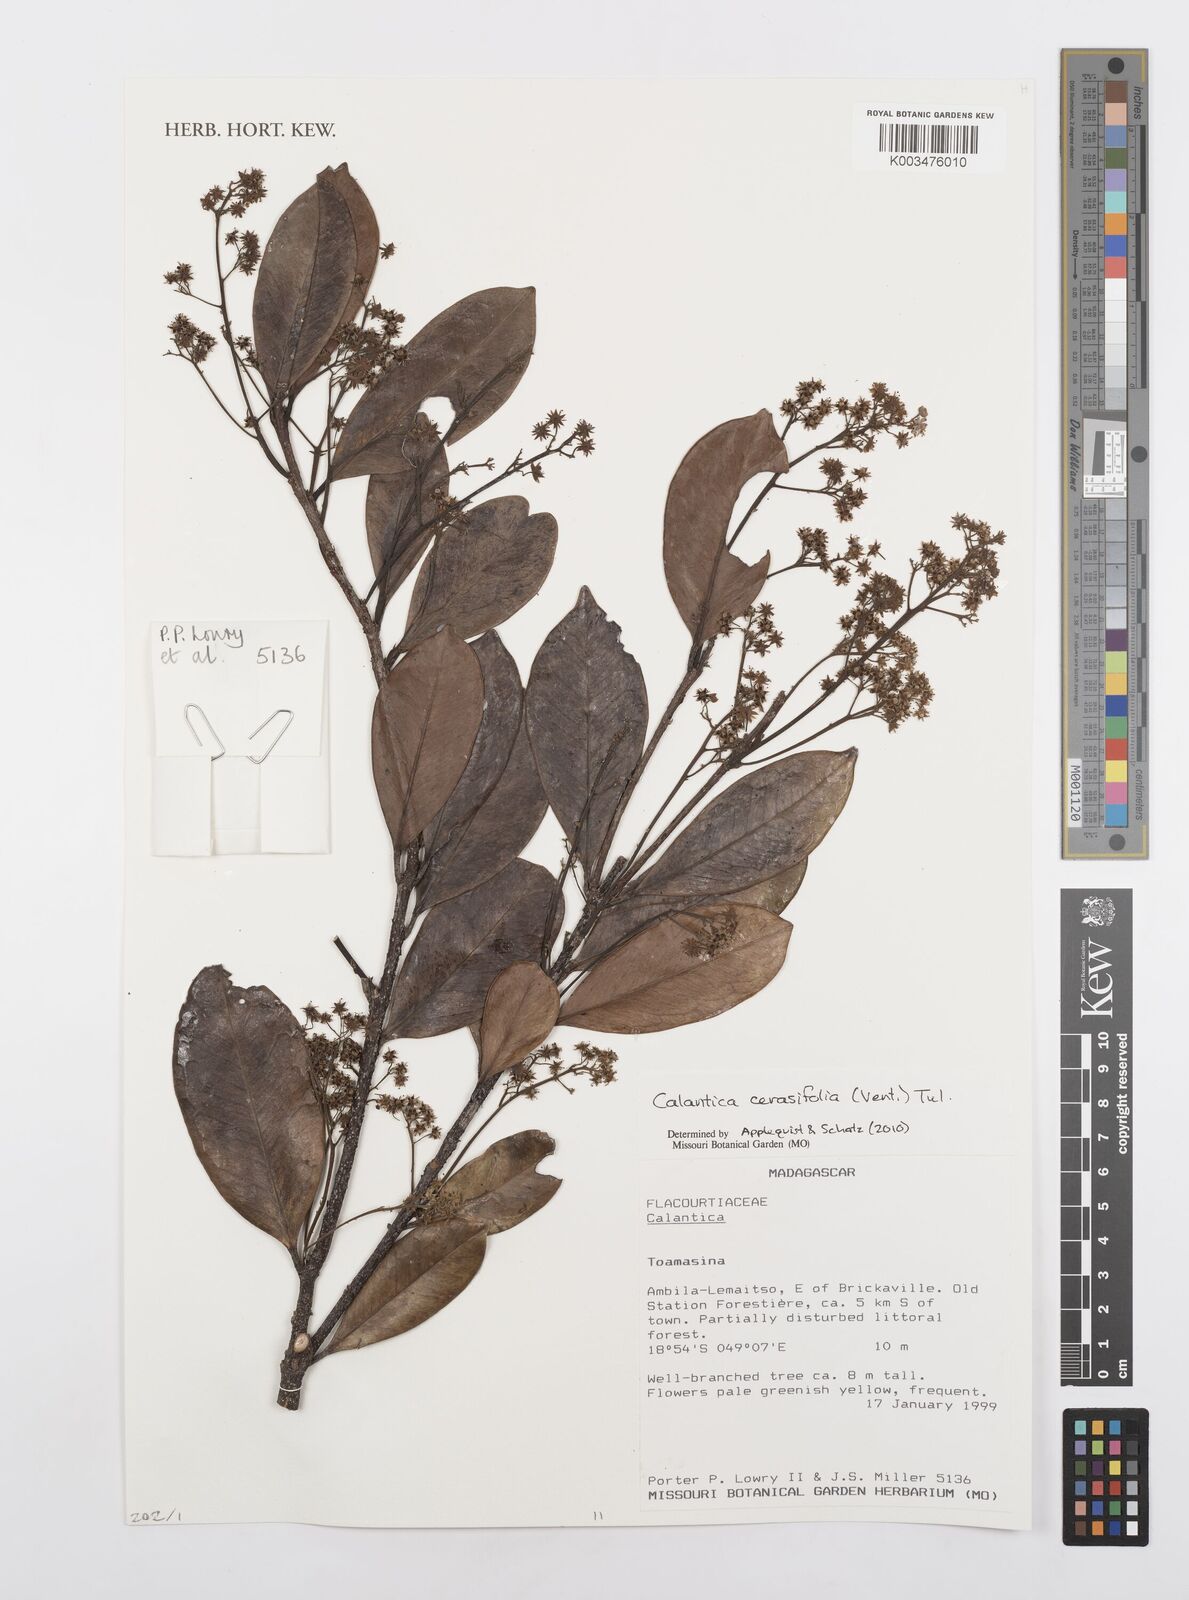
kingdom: Plantae
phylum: Tracheophyta
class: Magnoliopsida
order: Malpighiales
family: Salicaceae
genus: Calantica
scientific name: Calantica cerasifolia
